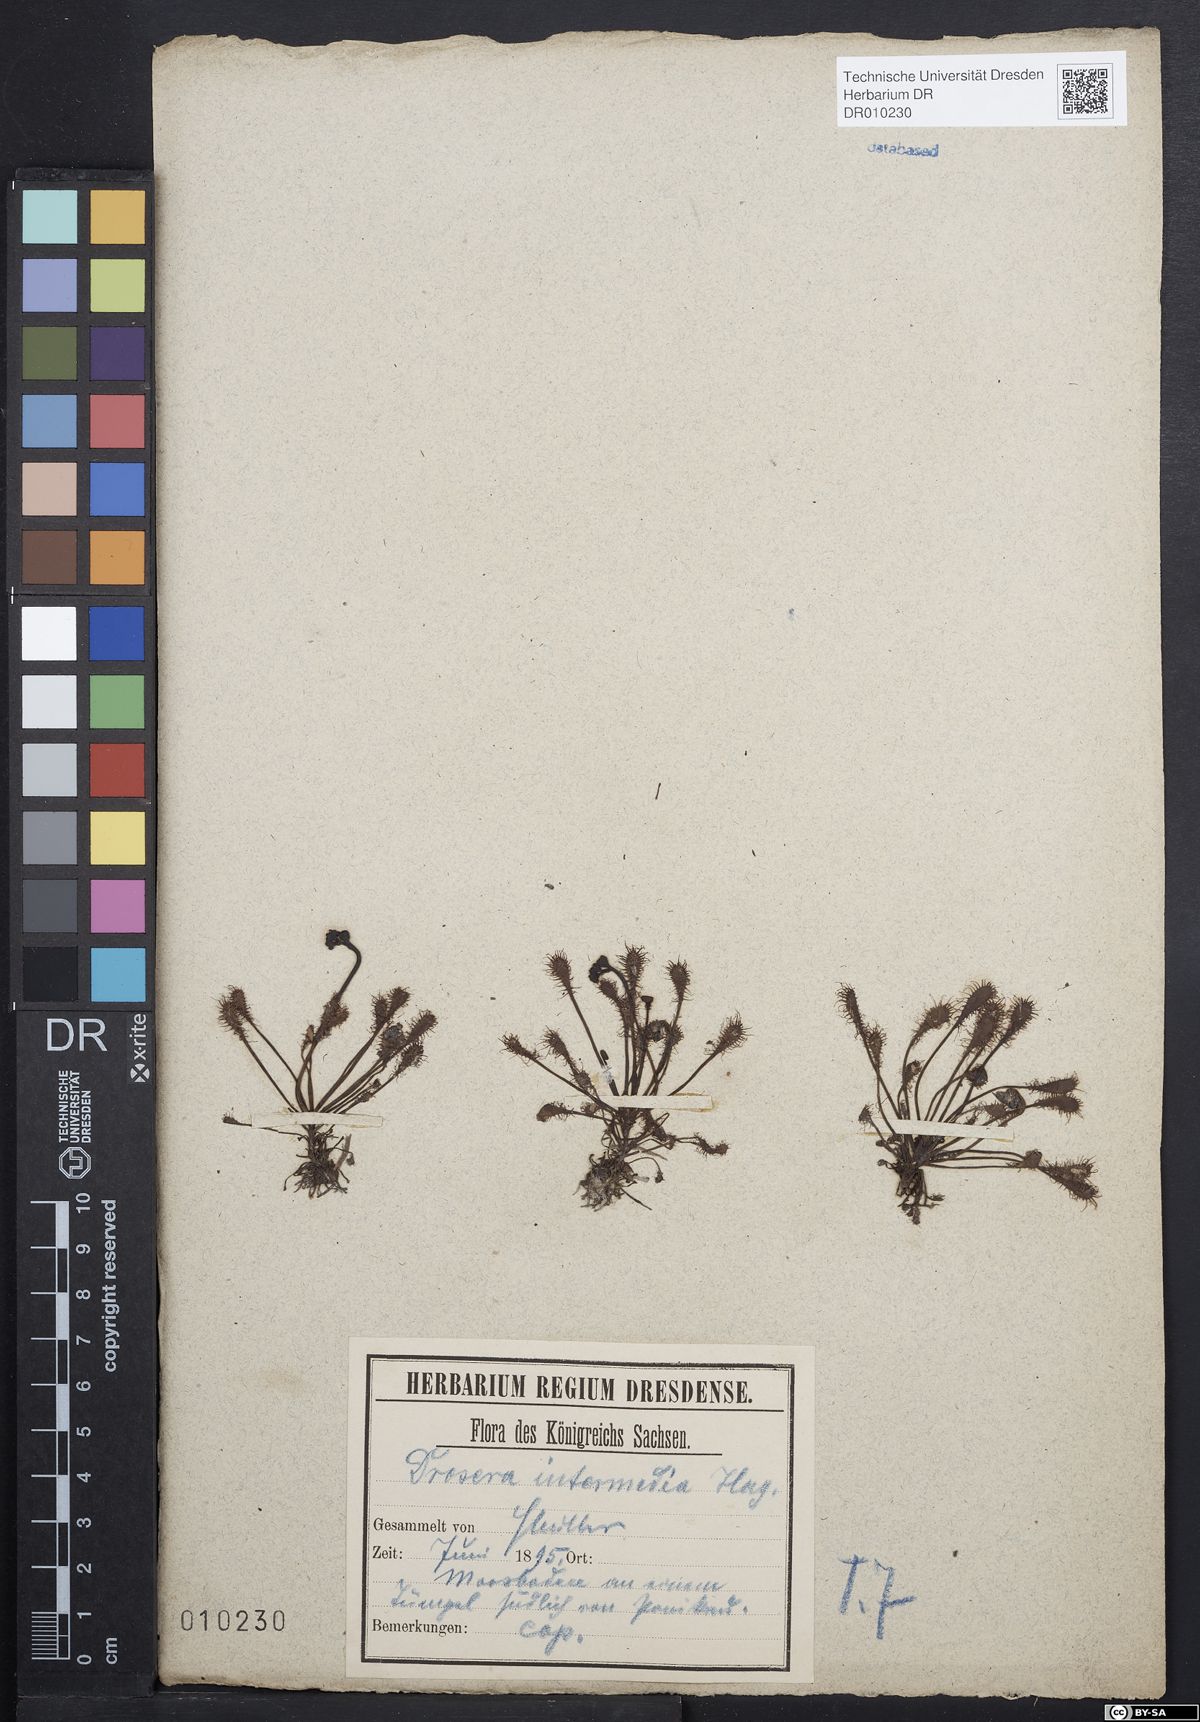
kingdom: Plantae
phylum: Tracheophyta
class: Magnoliopsida
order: Caryophyllales
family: Droseraceae
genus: Drosera
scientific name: Drosera intermedia
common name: Oblong-leaved sundew
